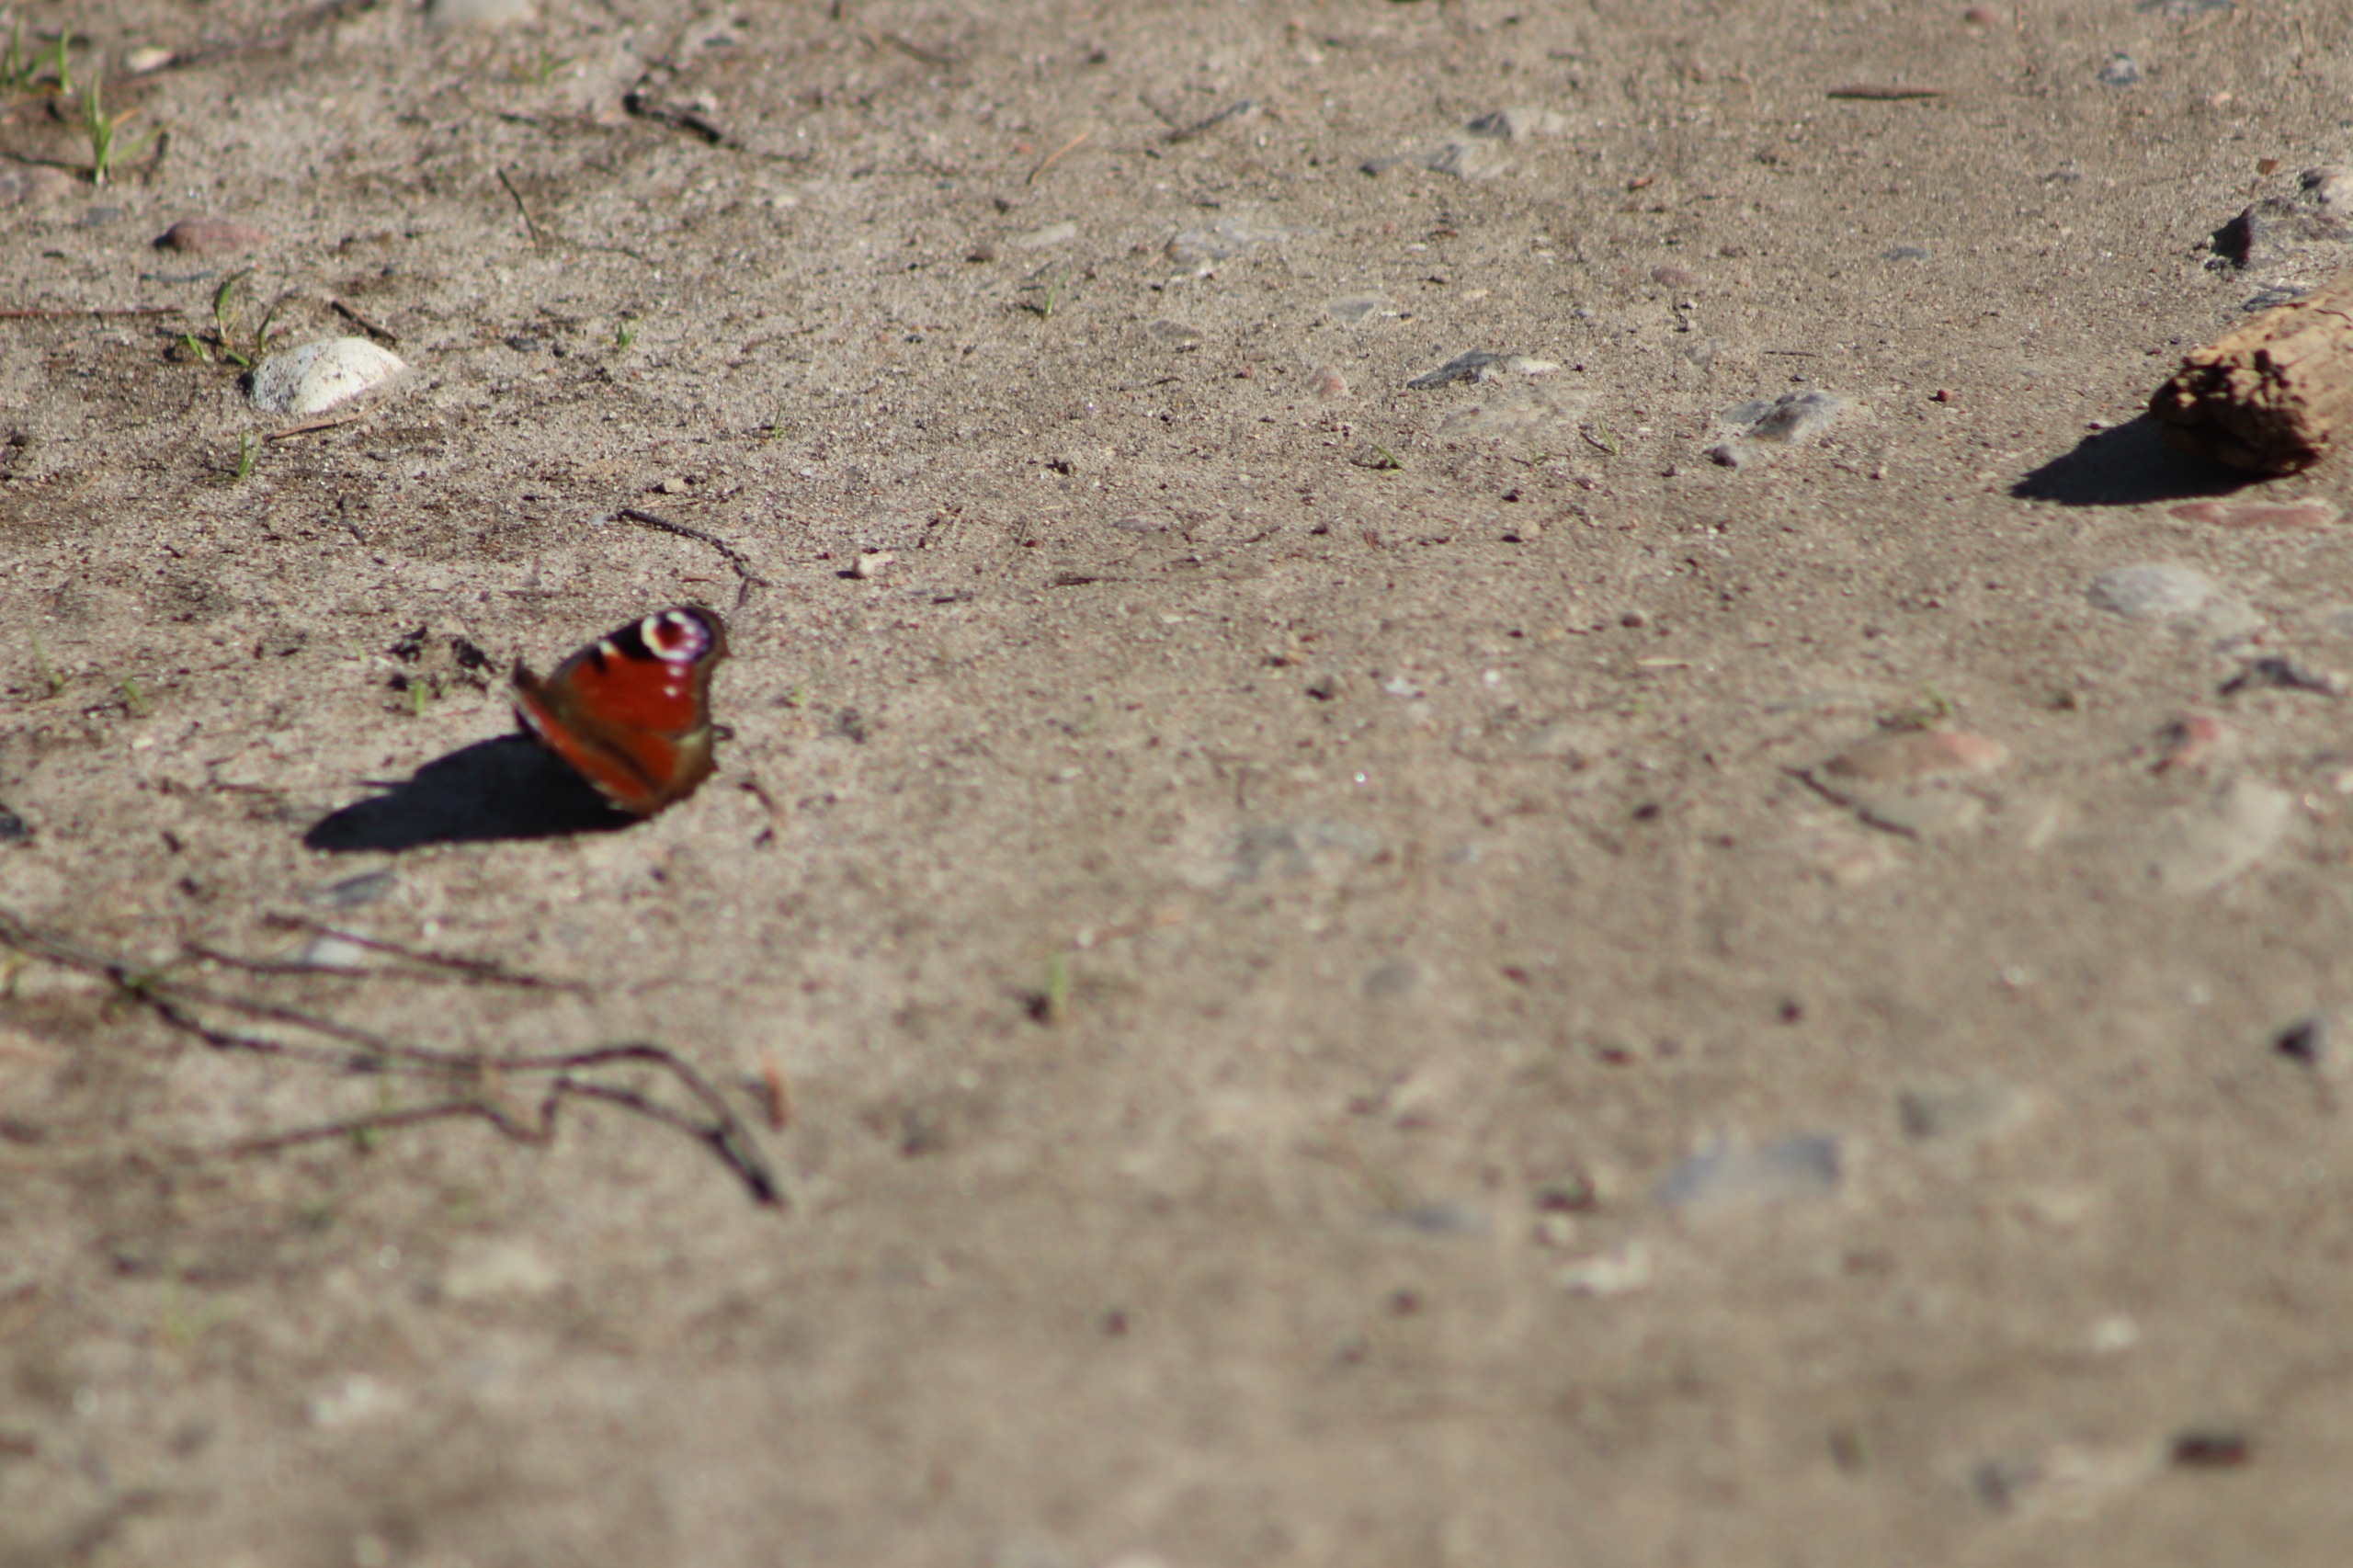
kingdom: Animalia
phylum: Arthropoda
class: Insecta
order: Lepidoptera
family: Nymphalidae
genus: Aglais
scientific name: Aglais io
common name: Dagpåfugleøje
